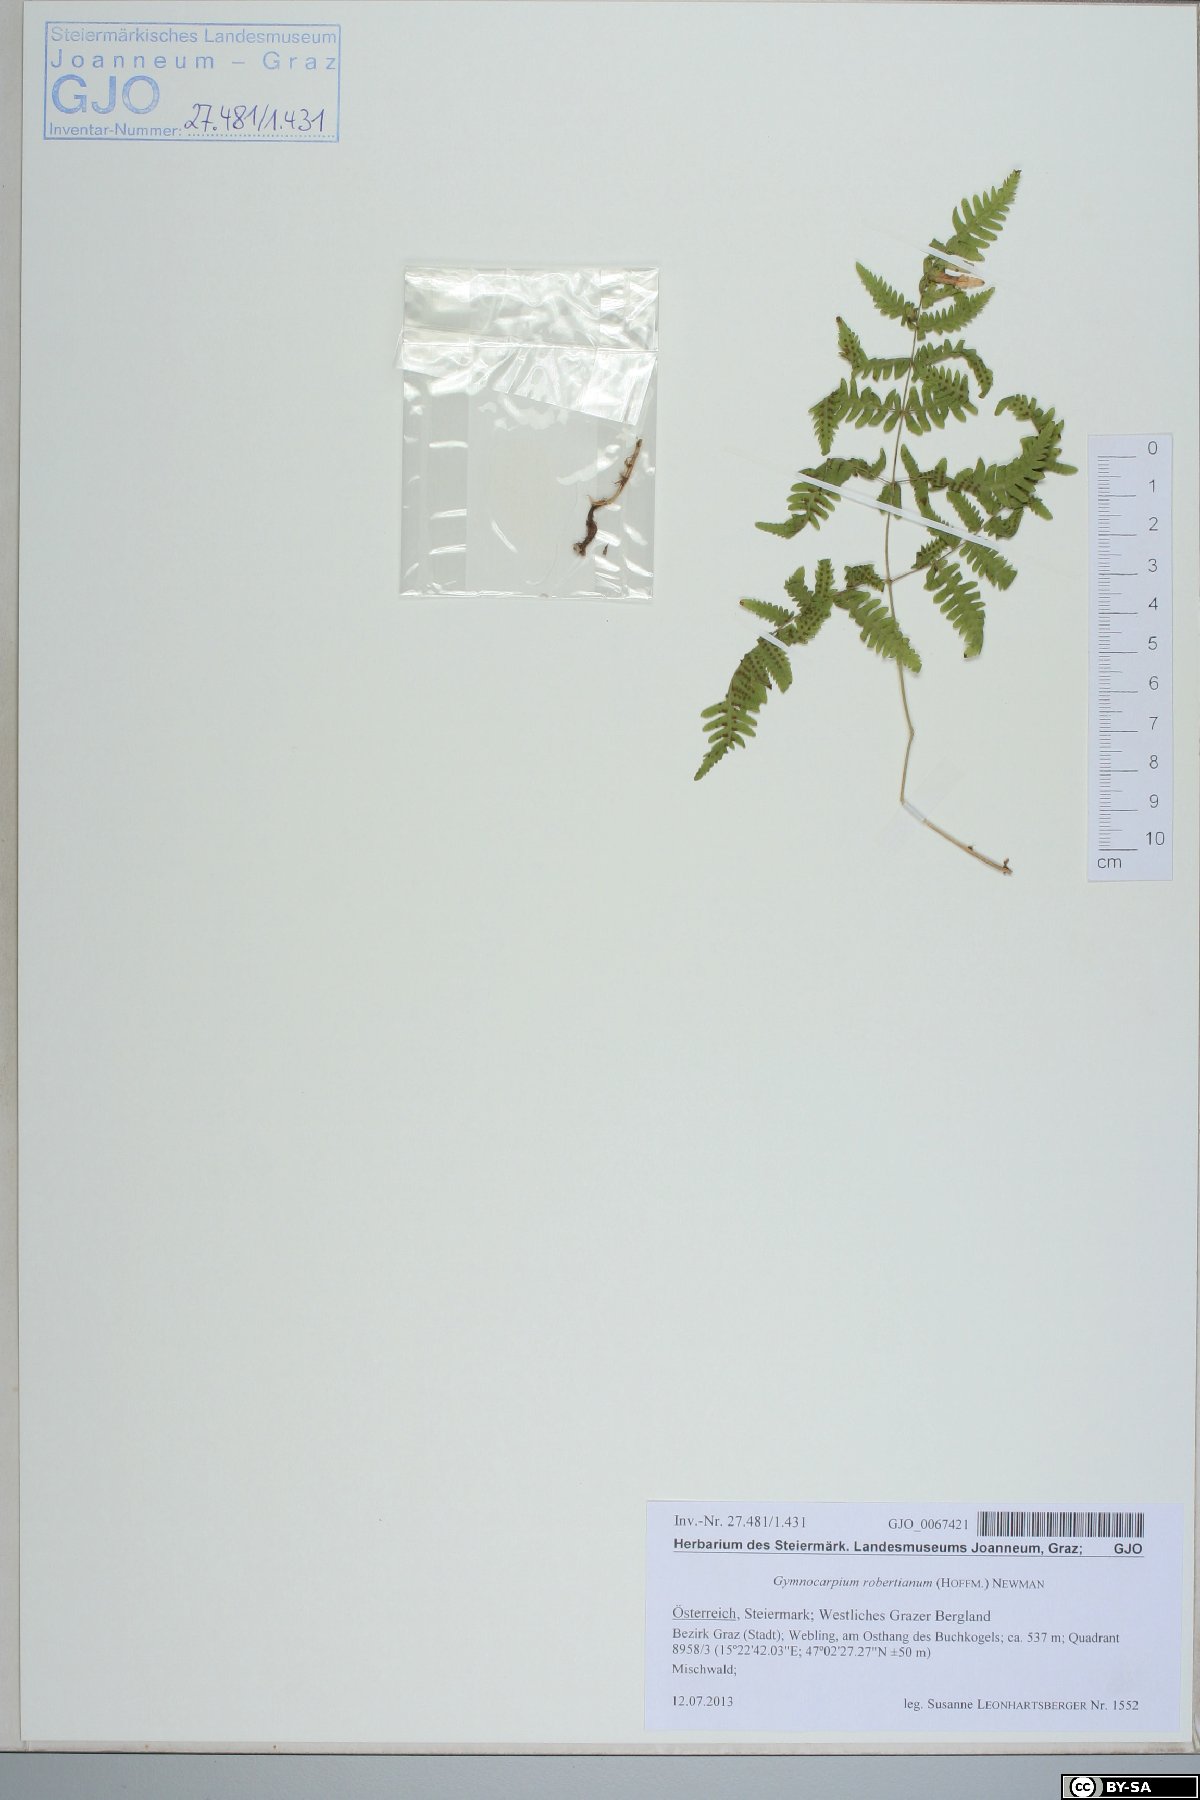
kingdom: Plantae
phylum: Tracheophyta
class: Polypodiopsida
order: Polypodiales
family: Cystopteridaceae
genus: Gymnocarpium
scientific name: Gymnocarpium robertianum
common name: Limestone fern
